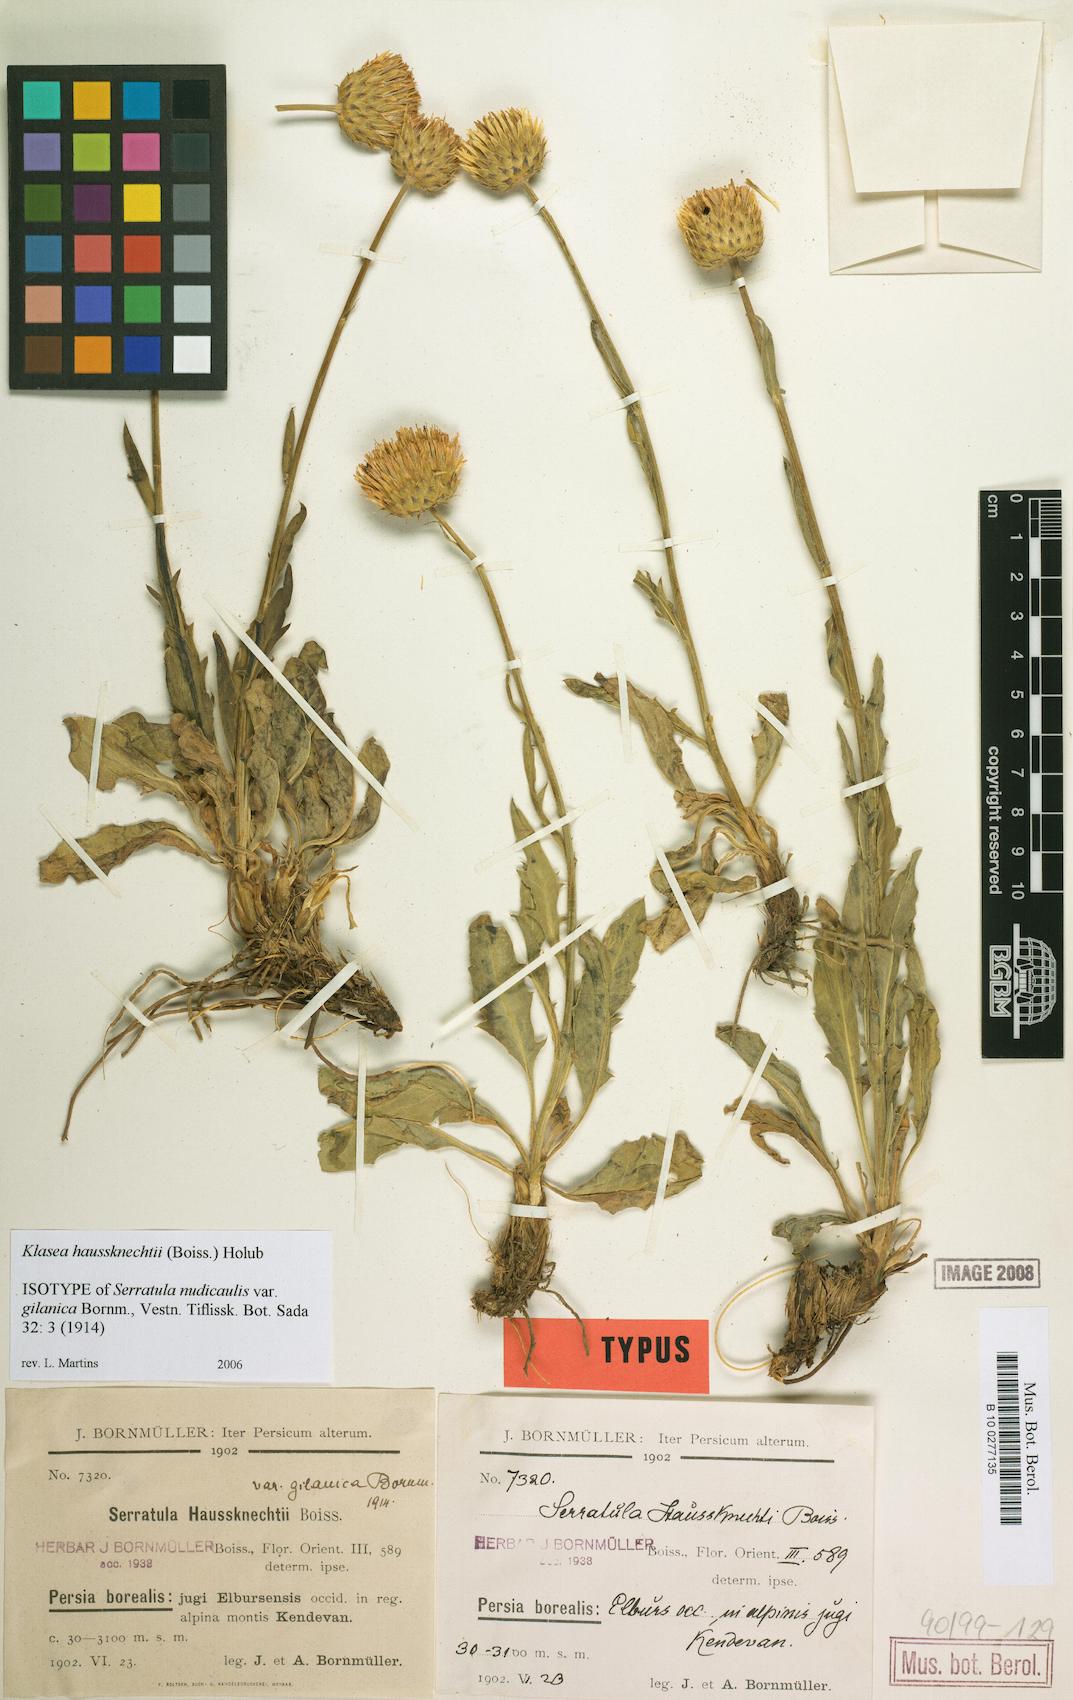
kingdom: Plantae
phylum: Tracheophyta
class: Magnoliopsida
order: Asterales
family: Asteraceae
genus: Klasea
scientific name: Klasea haussknechtii
